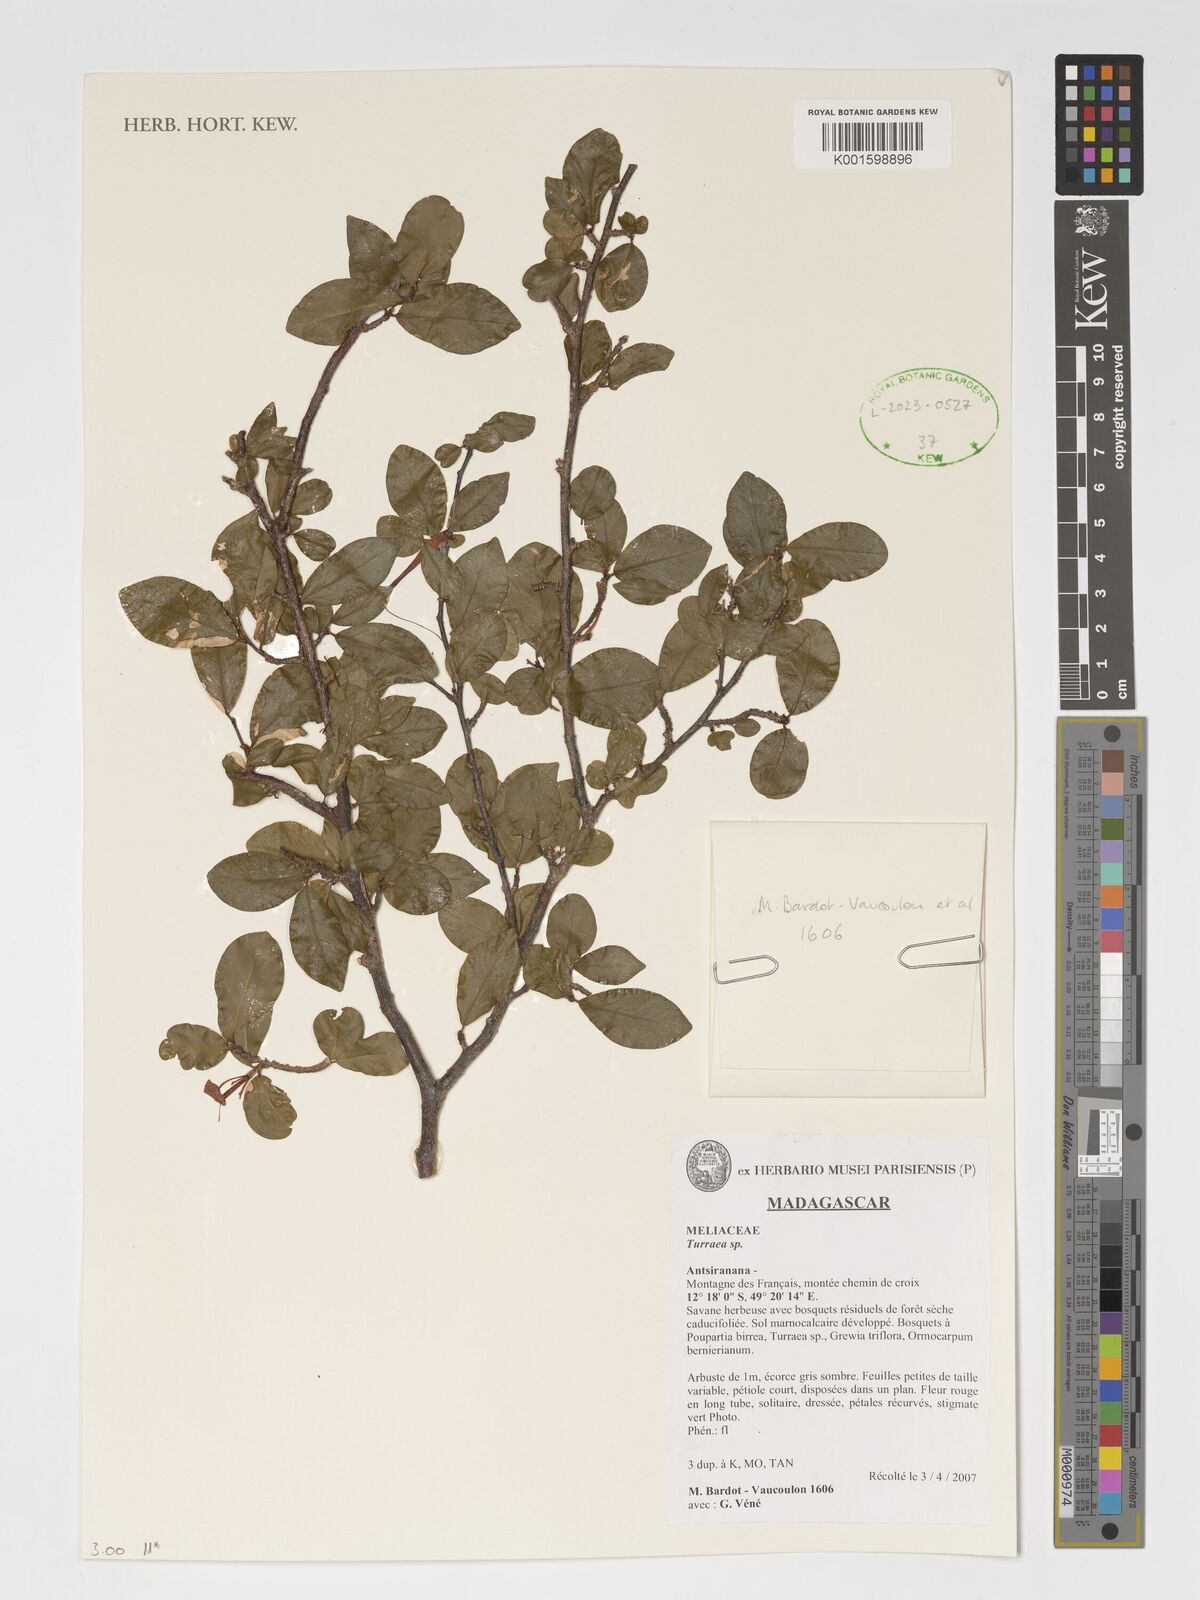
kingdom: Plantae
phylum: Tracheophyta
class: Magnoliopsida
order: Sapindales
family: Meliaceae
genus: Turraea
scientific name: Turraea
